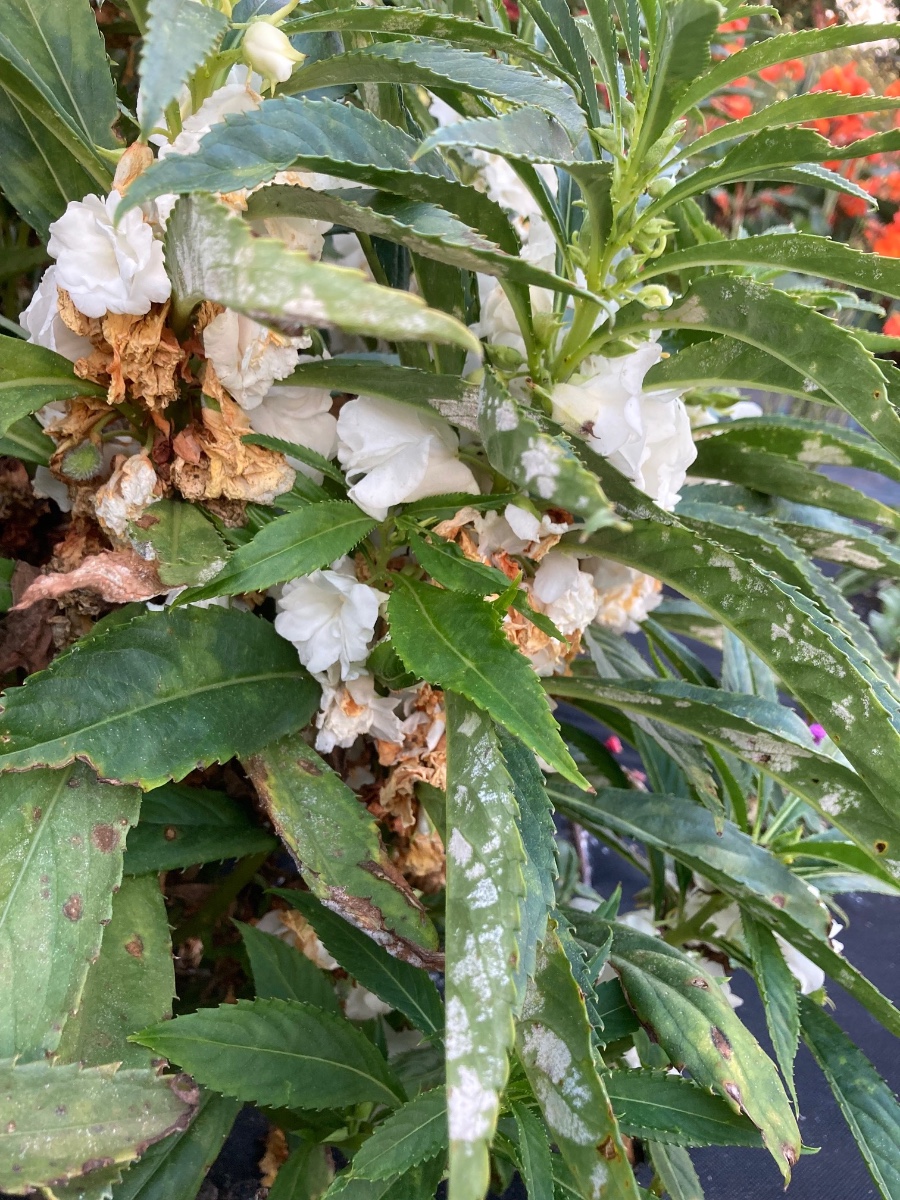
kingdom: Chromista
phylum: Oomycota
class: Peronosporea
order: Peronosporales
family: Peronosporaceae
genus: Plasmopara
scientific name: Plasmopara velutina
